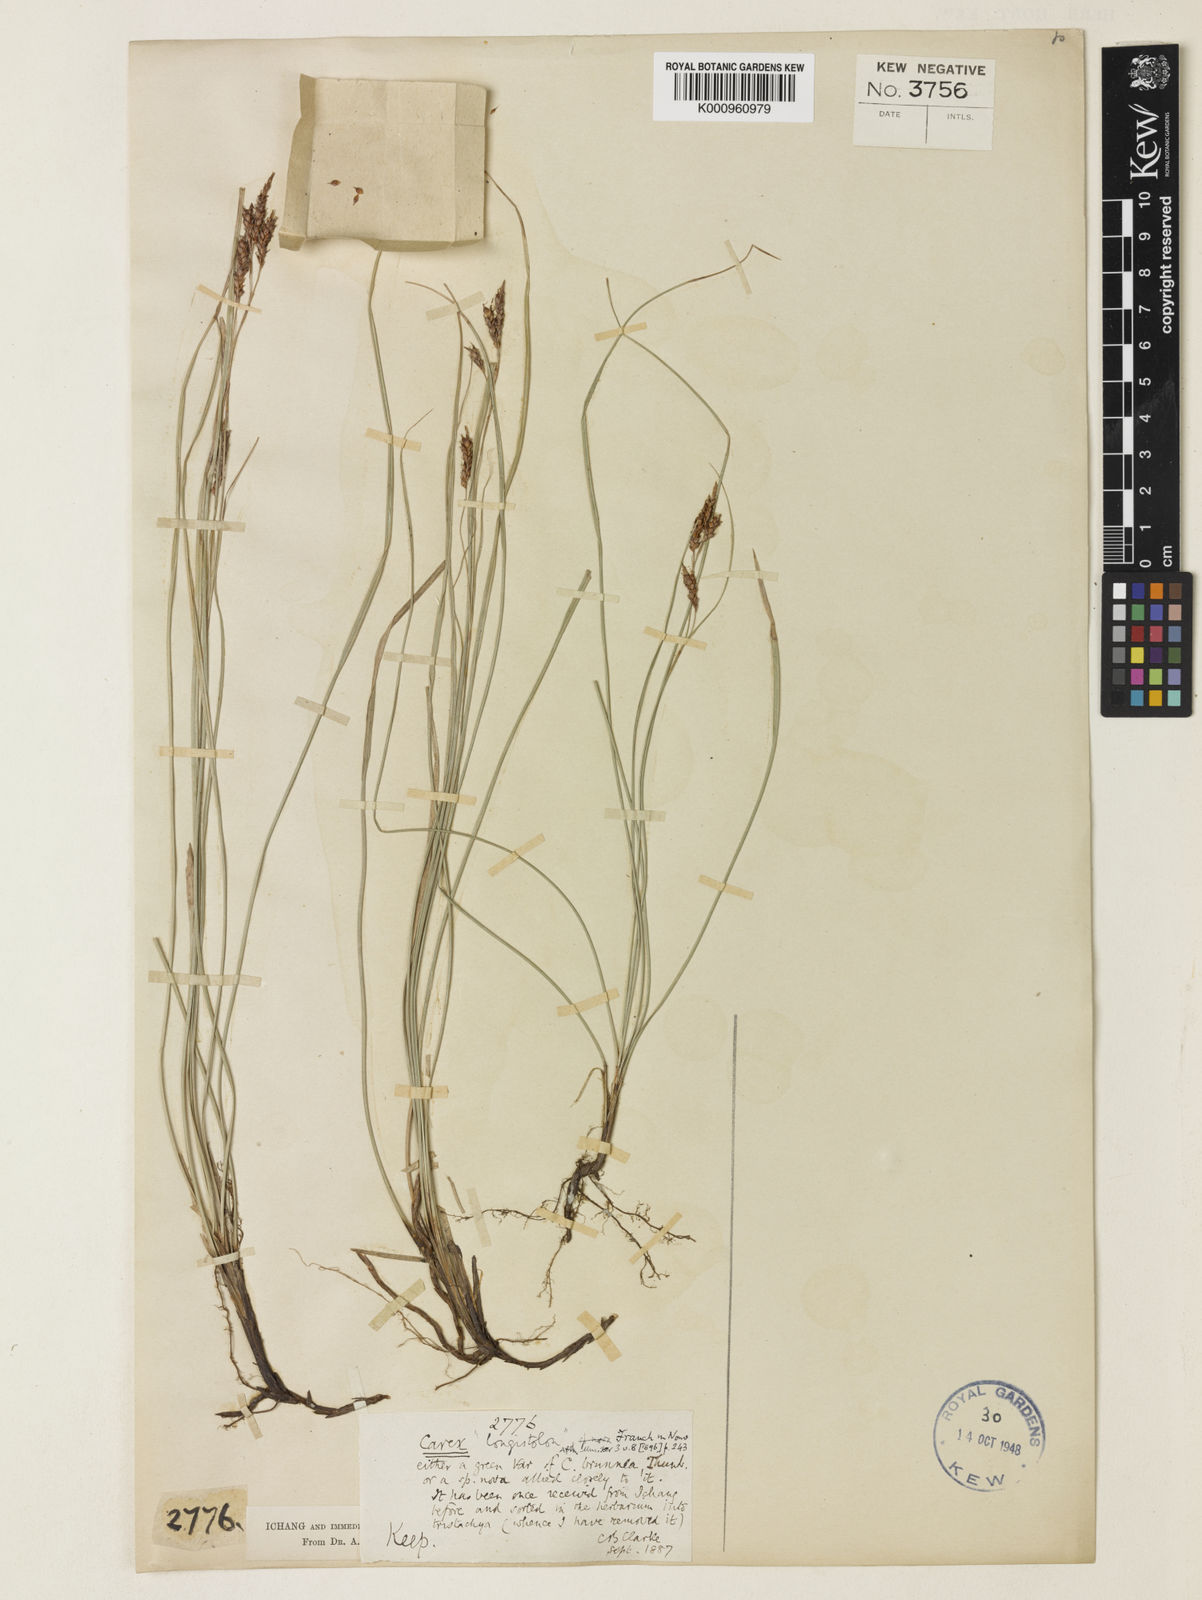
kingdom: Plantae
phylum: Tracheophyta
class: Liliopsida
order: Poales
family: Cyperaceae
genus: Carex
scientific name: Carex brunnea
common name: Greater brown sedge
